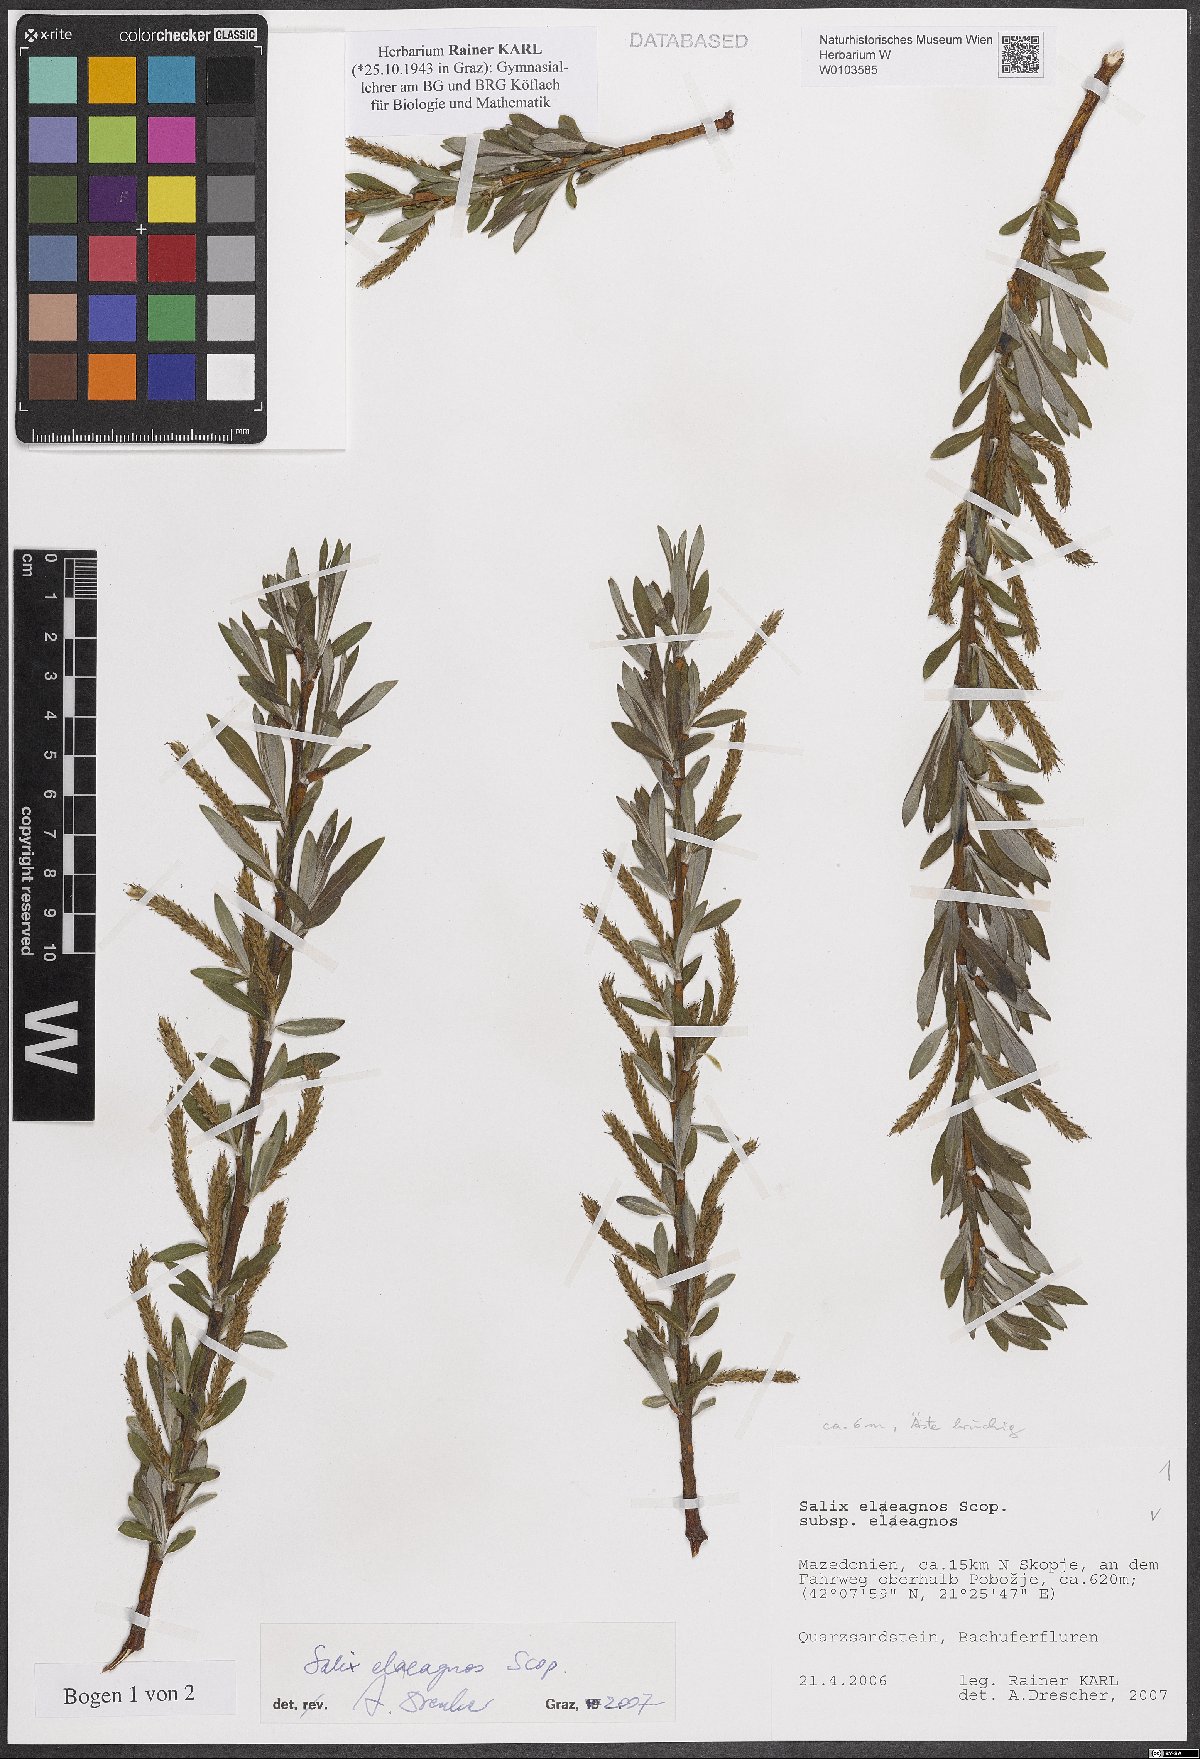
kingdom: Plantae
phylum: Tracheophyta
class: Magnoliopsida
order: Malpighiales
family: Salicaceae
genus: Salix
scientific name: Salix eleagnos
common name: Elaeagnus willow
